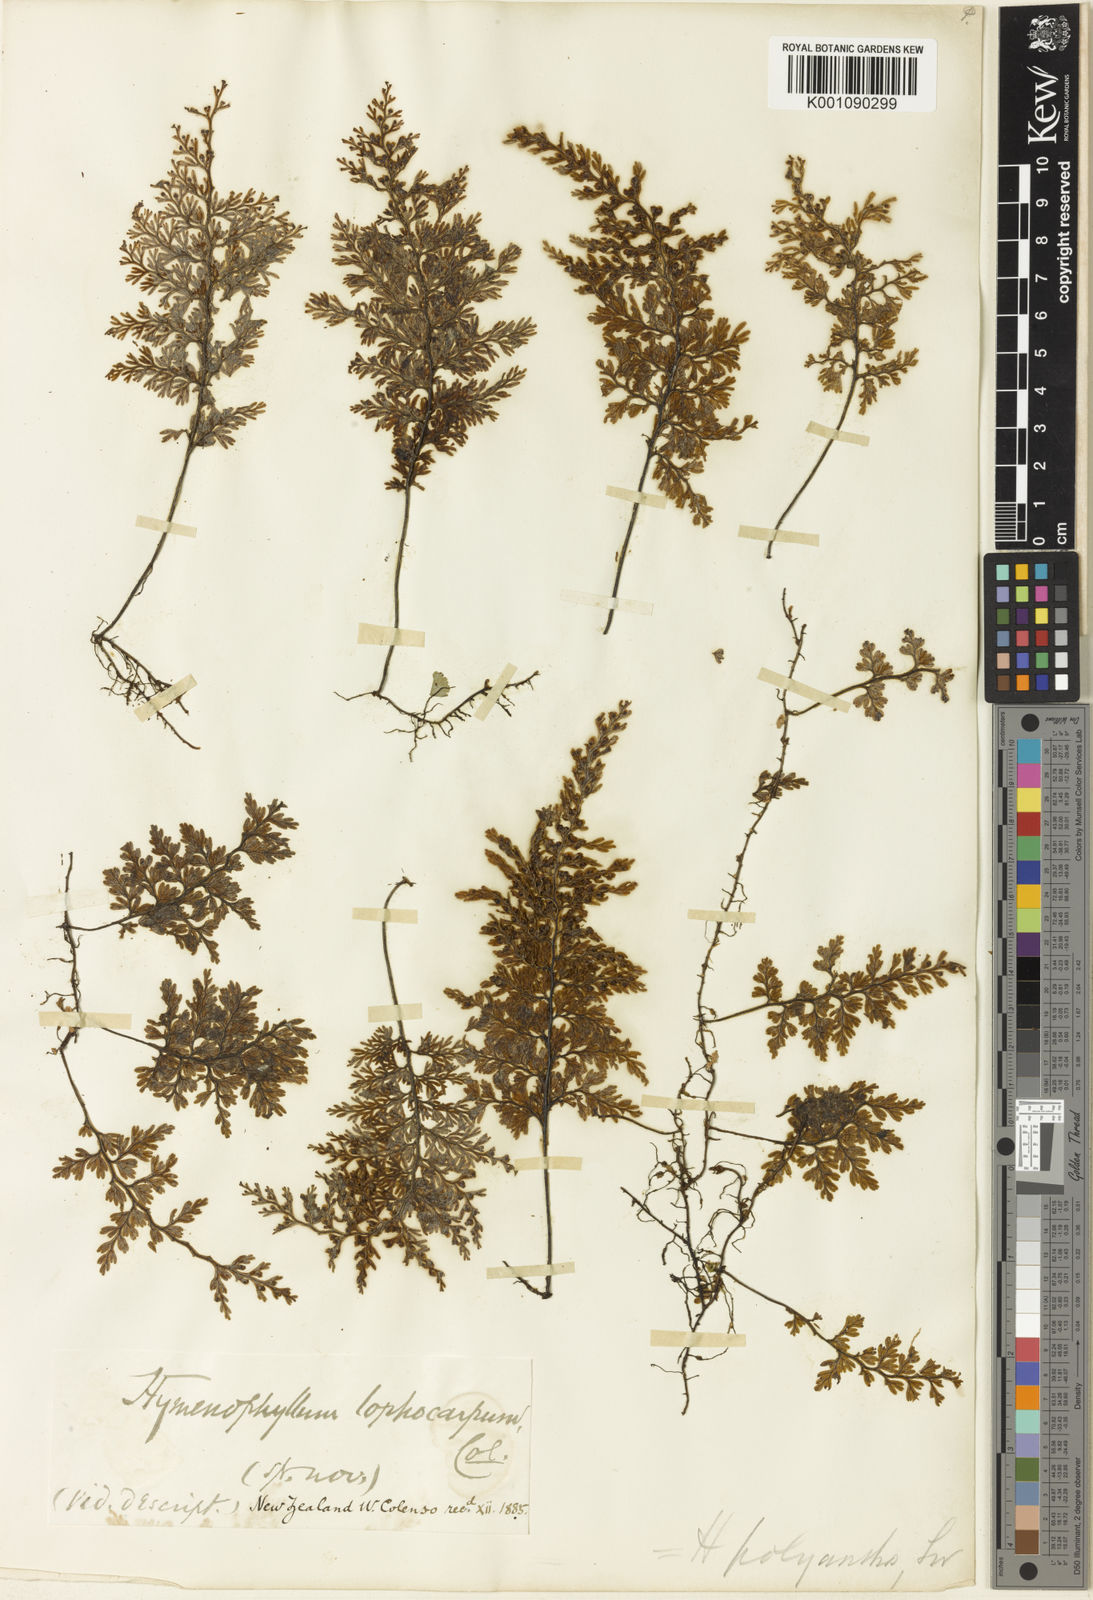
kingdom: Plantae
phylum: Tracheophyta
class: Polypodiopsida
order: Hymenophyllales
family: Hymenophyllaceae
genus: Hymenophyllum
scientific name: Hymenophyllum sanguinolentum
